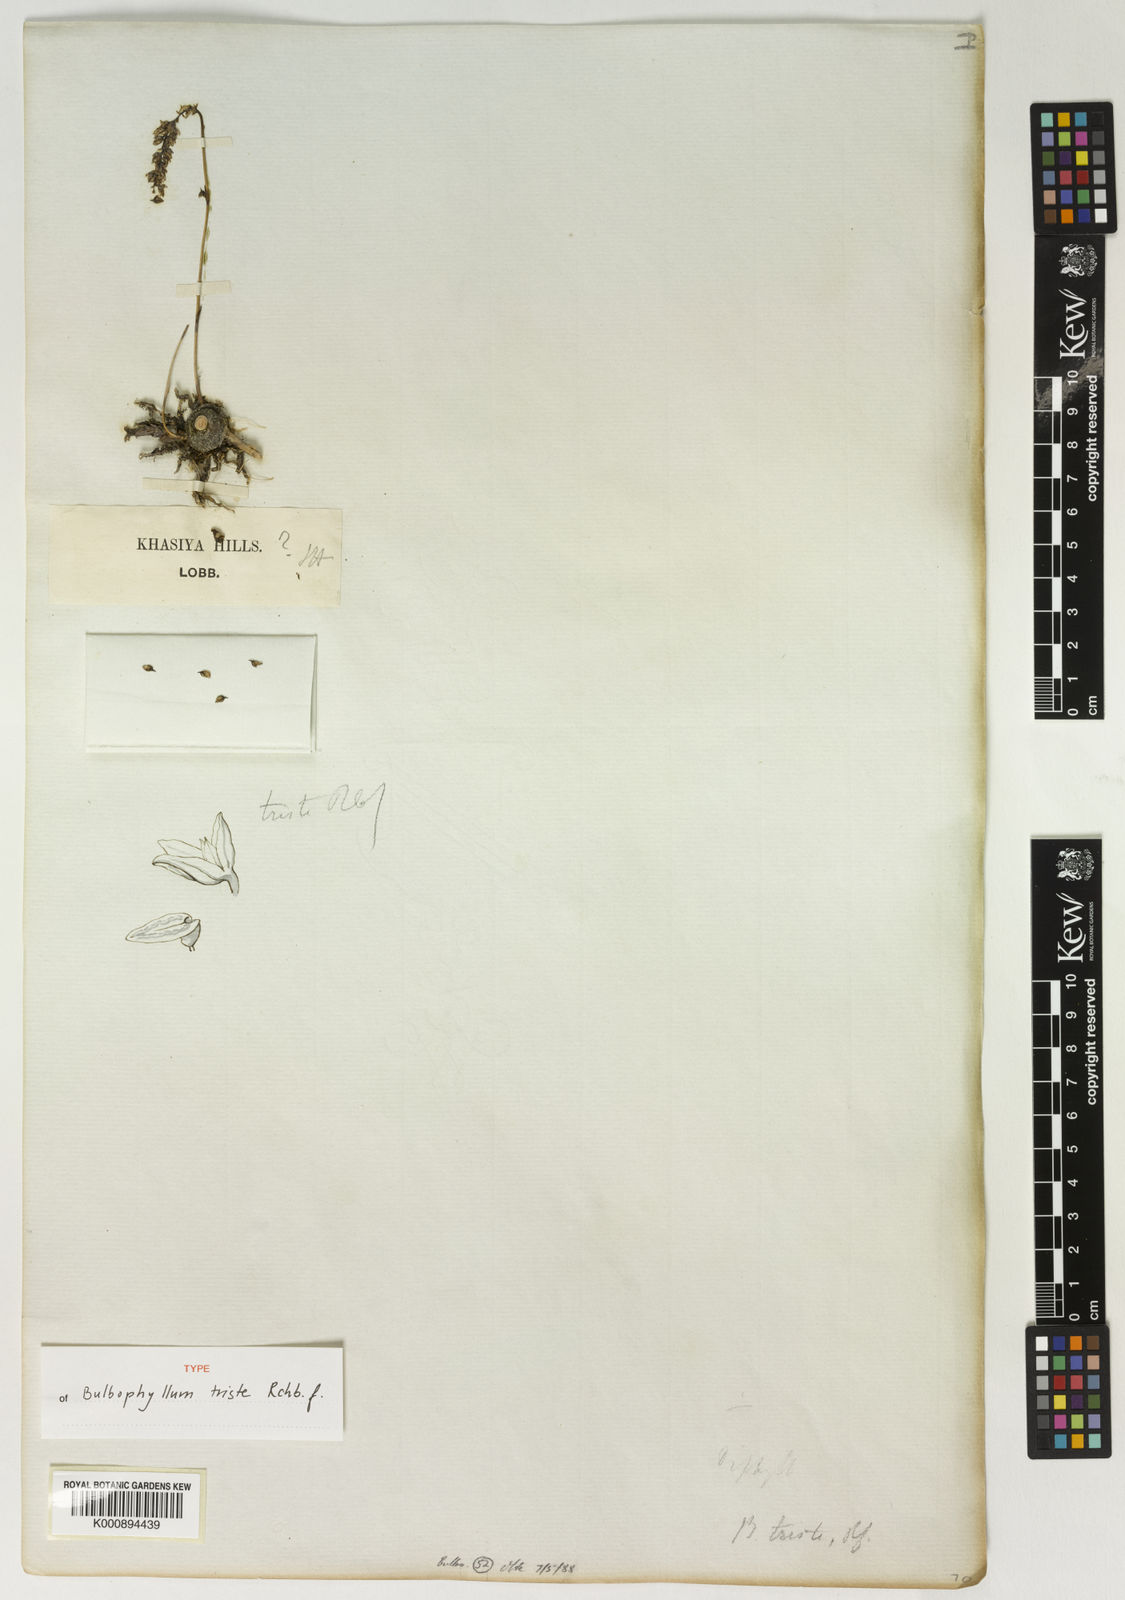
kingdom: Plantae
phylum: Tracheophyta
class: Liliopsida
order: Asparagales
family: Orchidaceae
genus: Bulbophyllum
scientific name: Bulbophyllum triste
